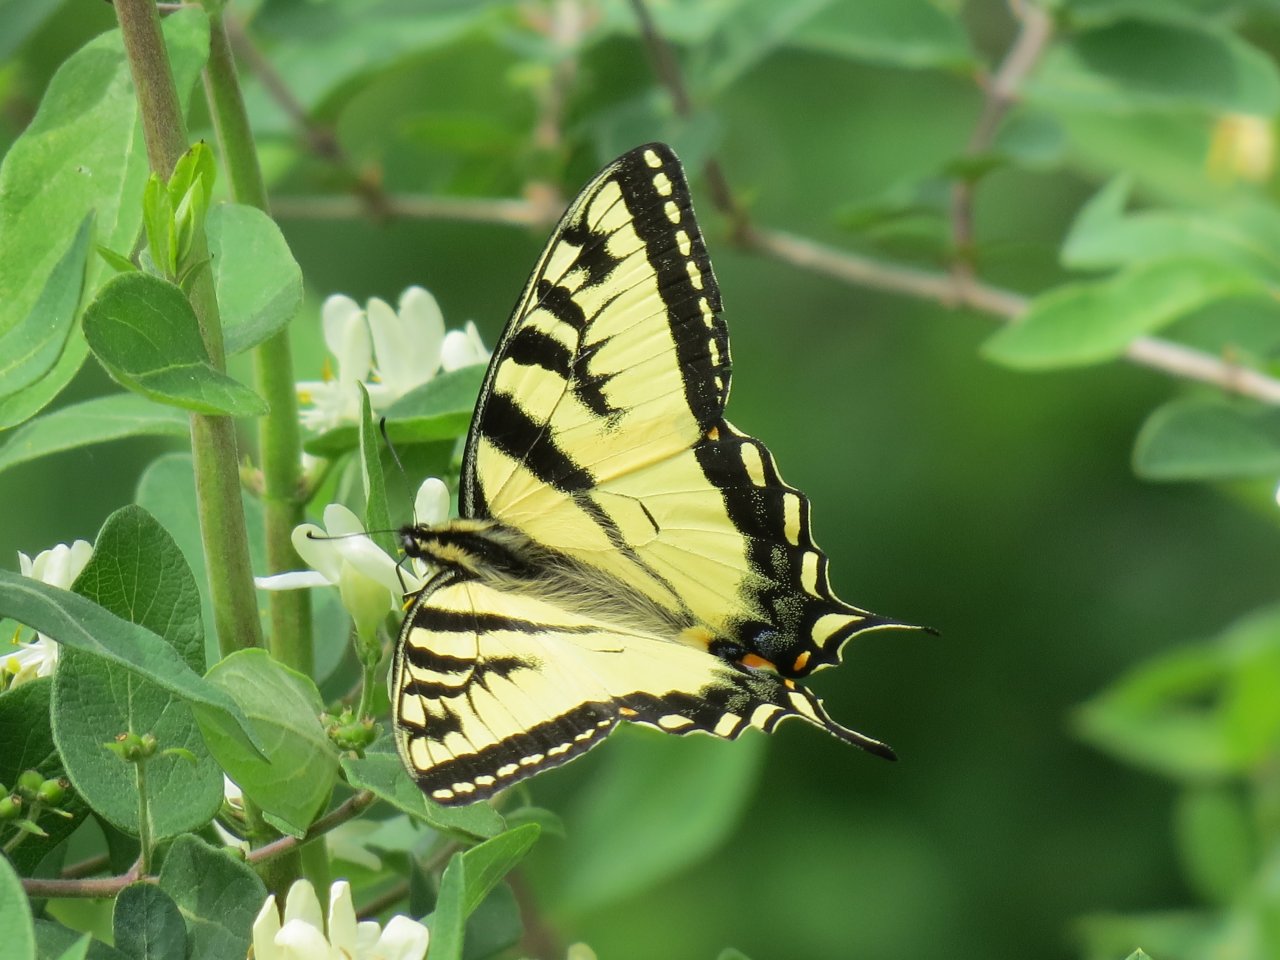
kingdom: Animalia
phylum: Arthropoda
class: Insecta
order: Lepidoptera
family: Papilionidae
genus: Pterourus
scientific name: Pterourus canadensis
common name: Canadian Tiger Swallowtail
